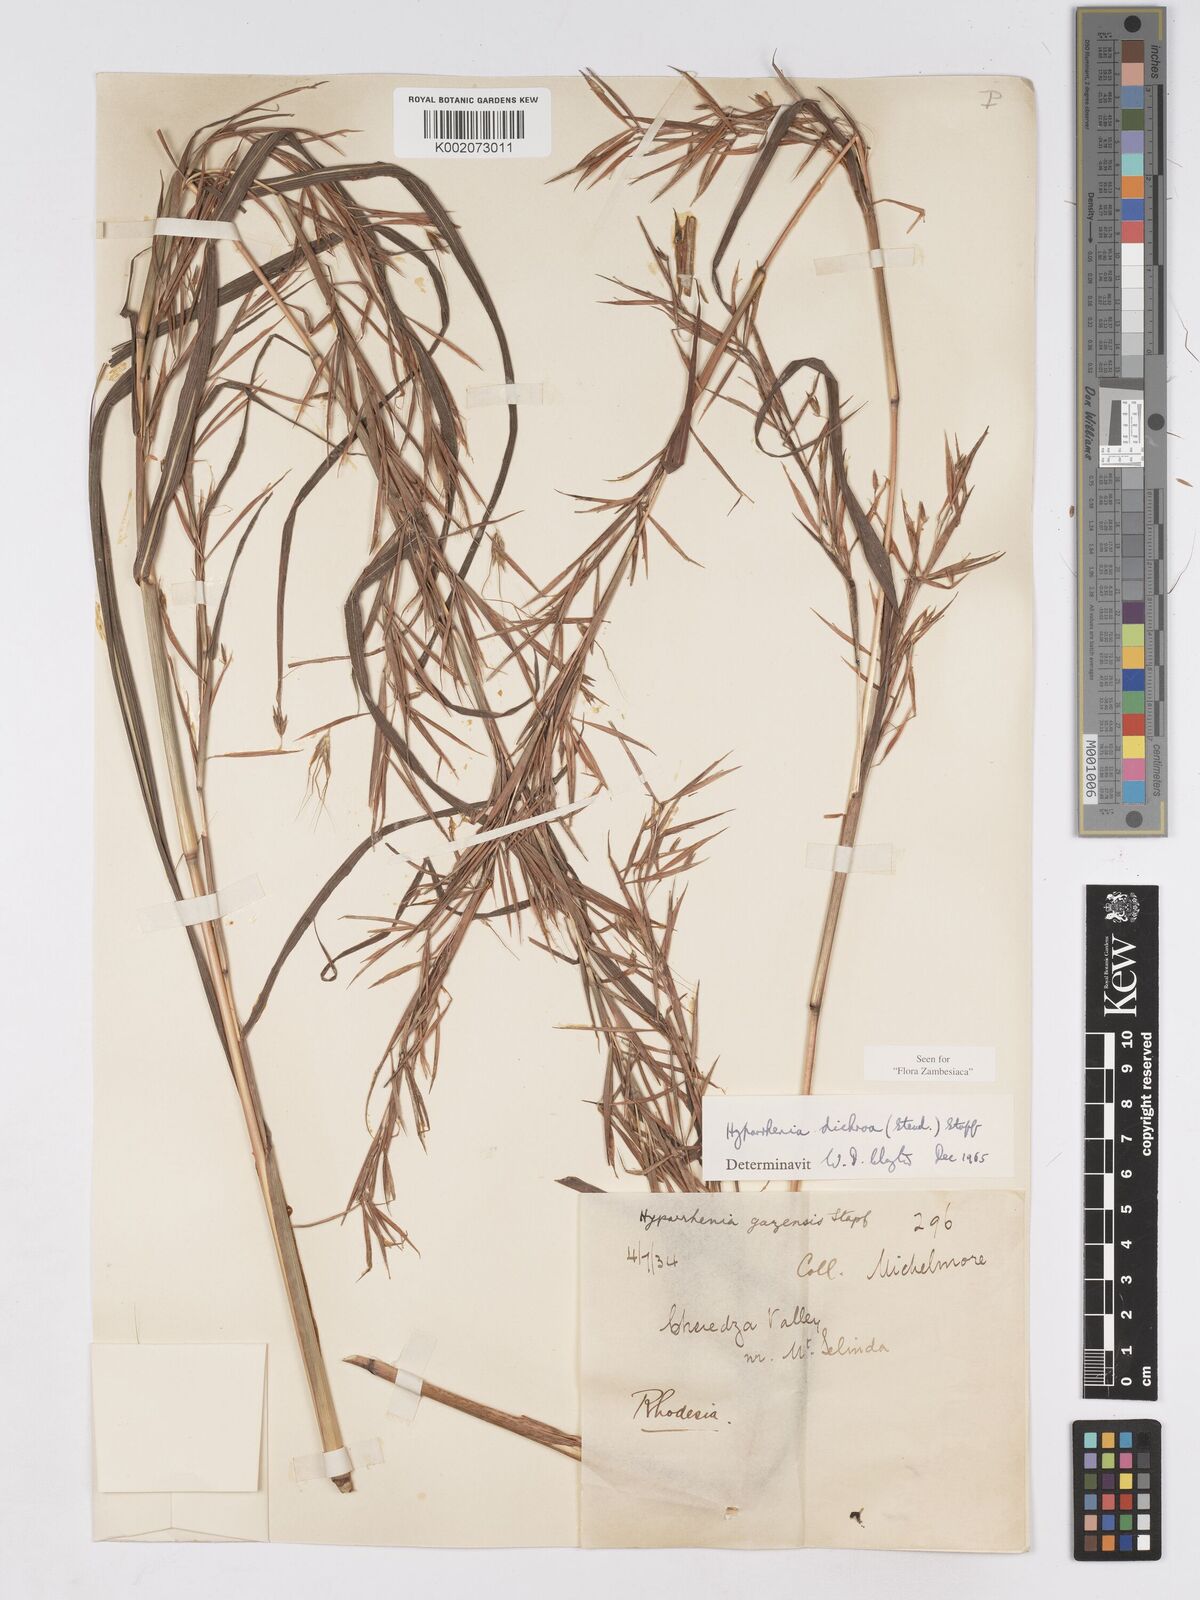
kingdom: Plantae
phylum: Tracheophyta
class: Liliopsida
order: Poales
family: Poaceae
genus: Hyparrhenia
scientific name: Hyparrhenia dichroa
